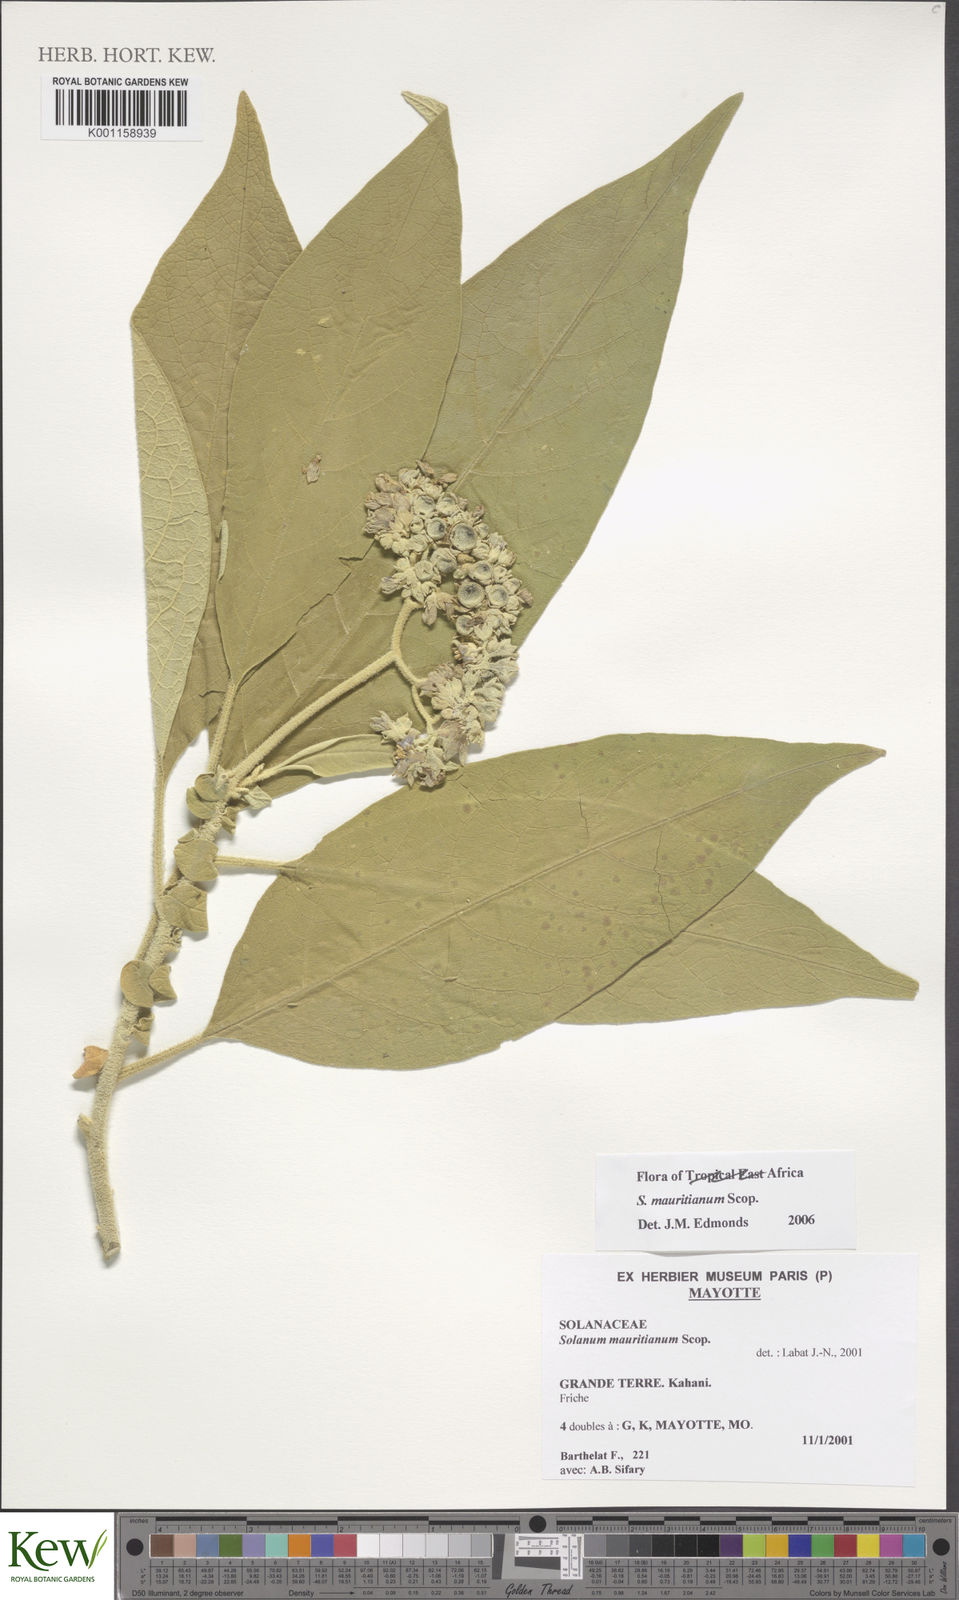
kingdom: Plantae
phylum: Tracheophyta
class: Magnoliopsida
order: Solanales
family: Solanaceae
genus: Solanum
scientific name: Solanum mauritianum
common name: Earleaf nightshade
